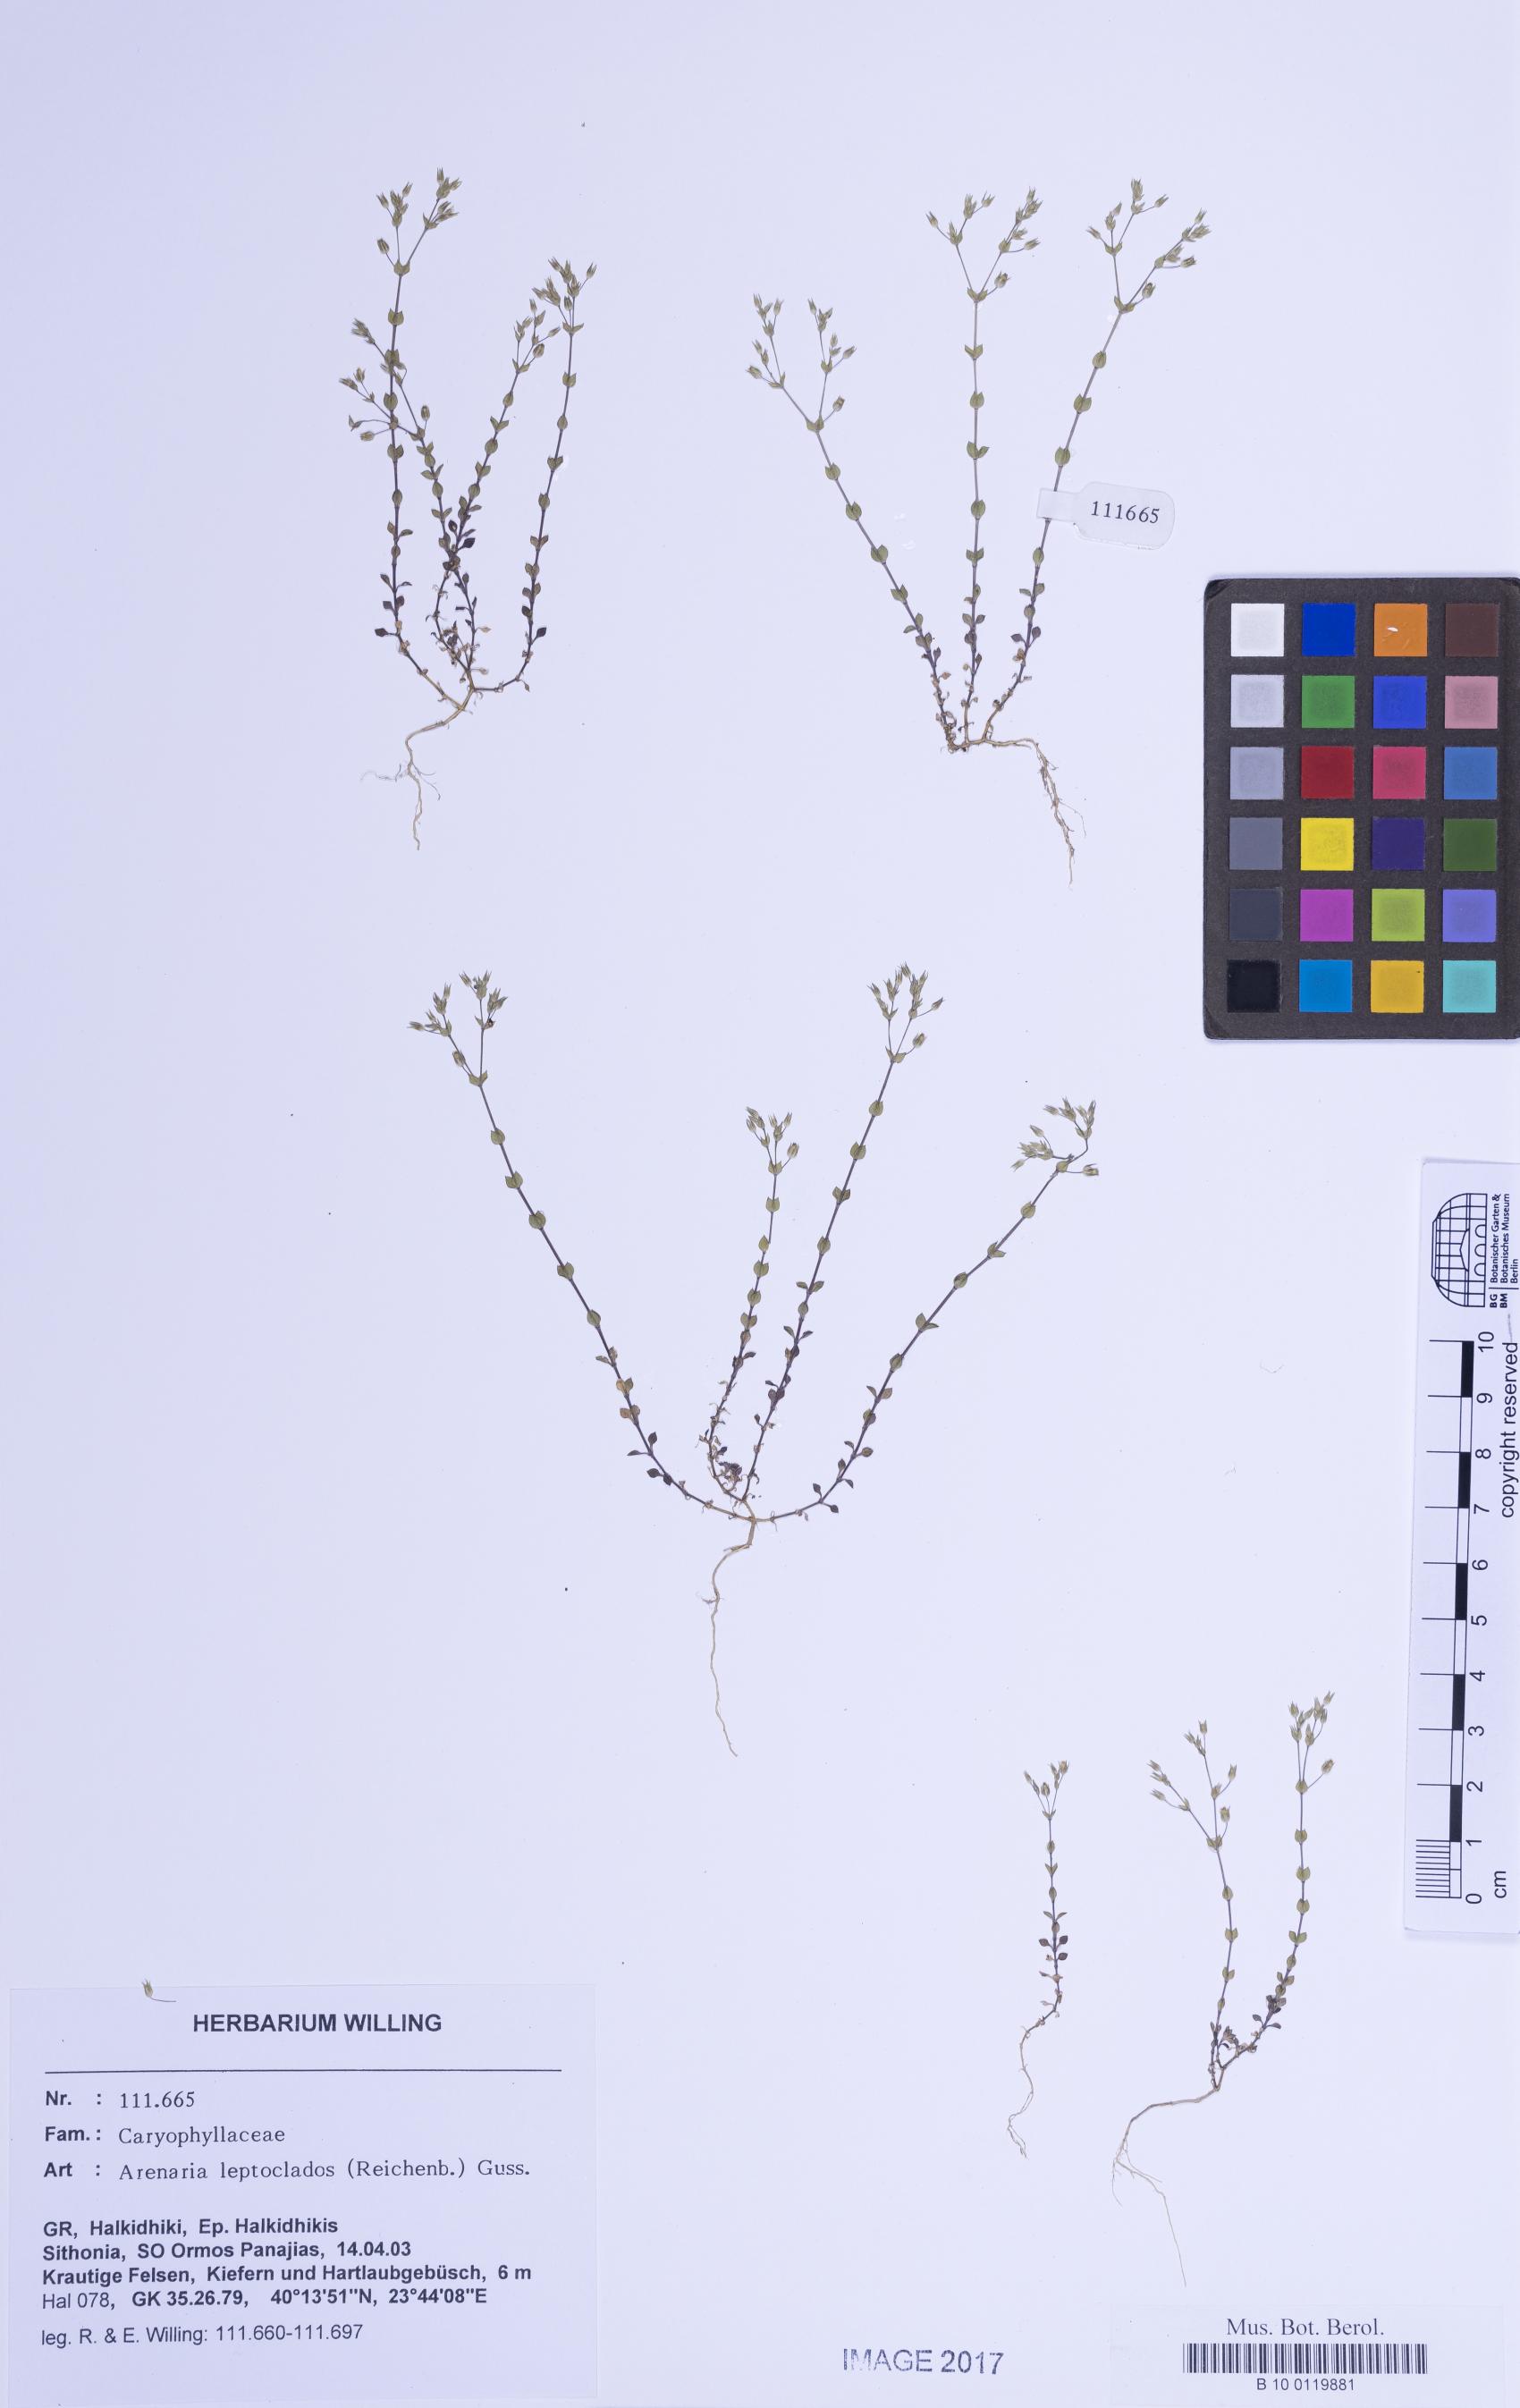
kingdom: Plantae
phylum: Tracheophyta
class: Magnoliopsida
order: Caryophyllales
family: Caryophyllaceae
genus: Arenaria
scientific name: Arenaria leptoclados
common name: Thyme-leaved sandwort
